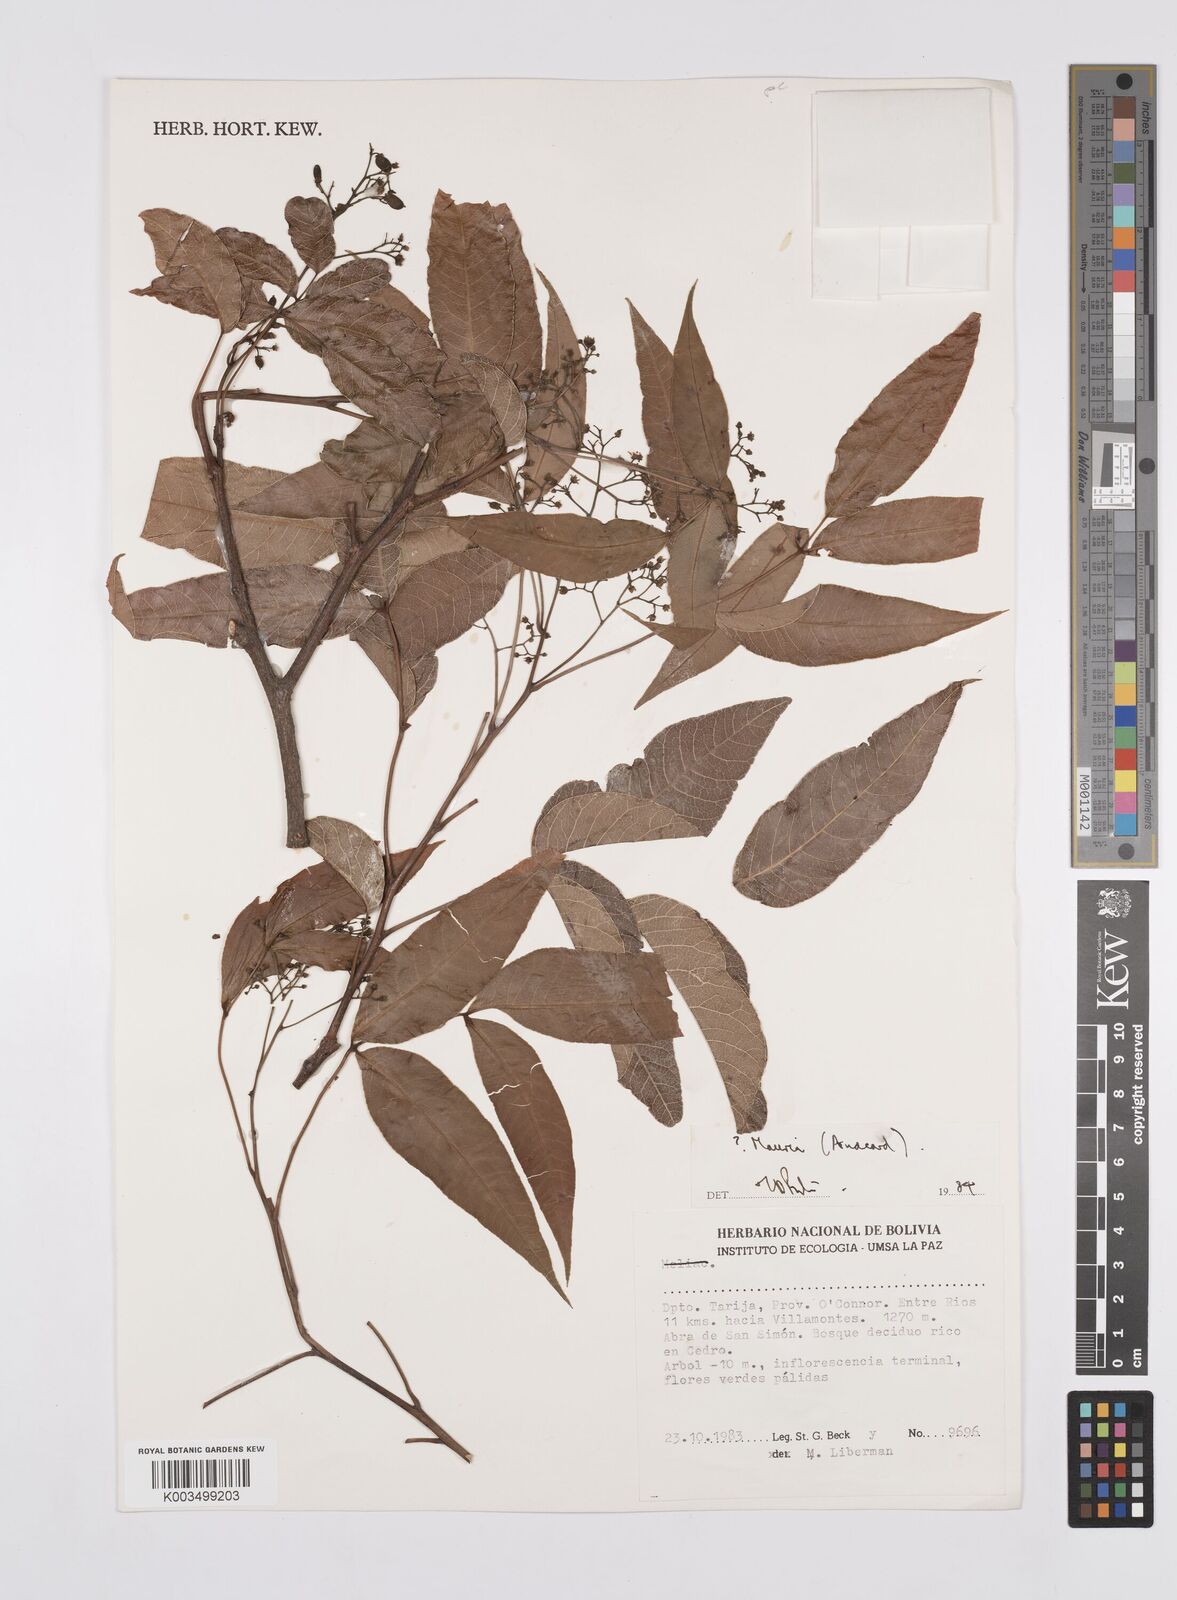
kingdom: Plantae
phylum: Tracheophyta
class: Magnoliopsida
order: Sapindales
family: Anacardiaceae
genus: Mauria
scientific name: Mauria
